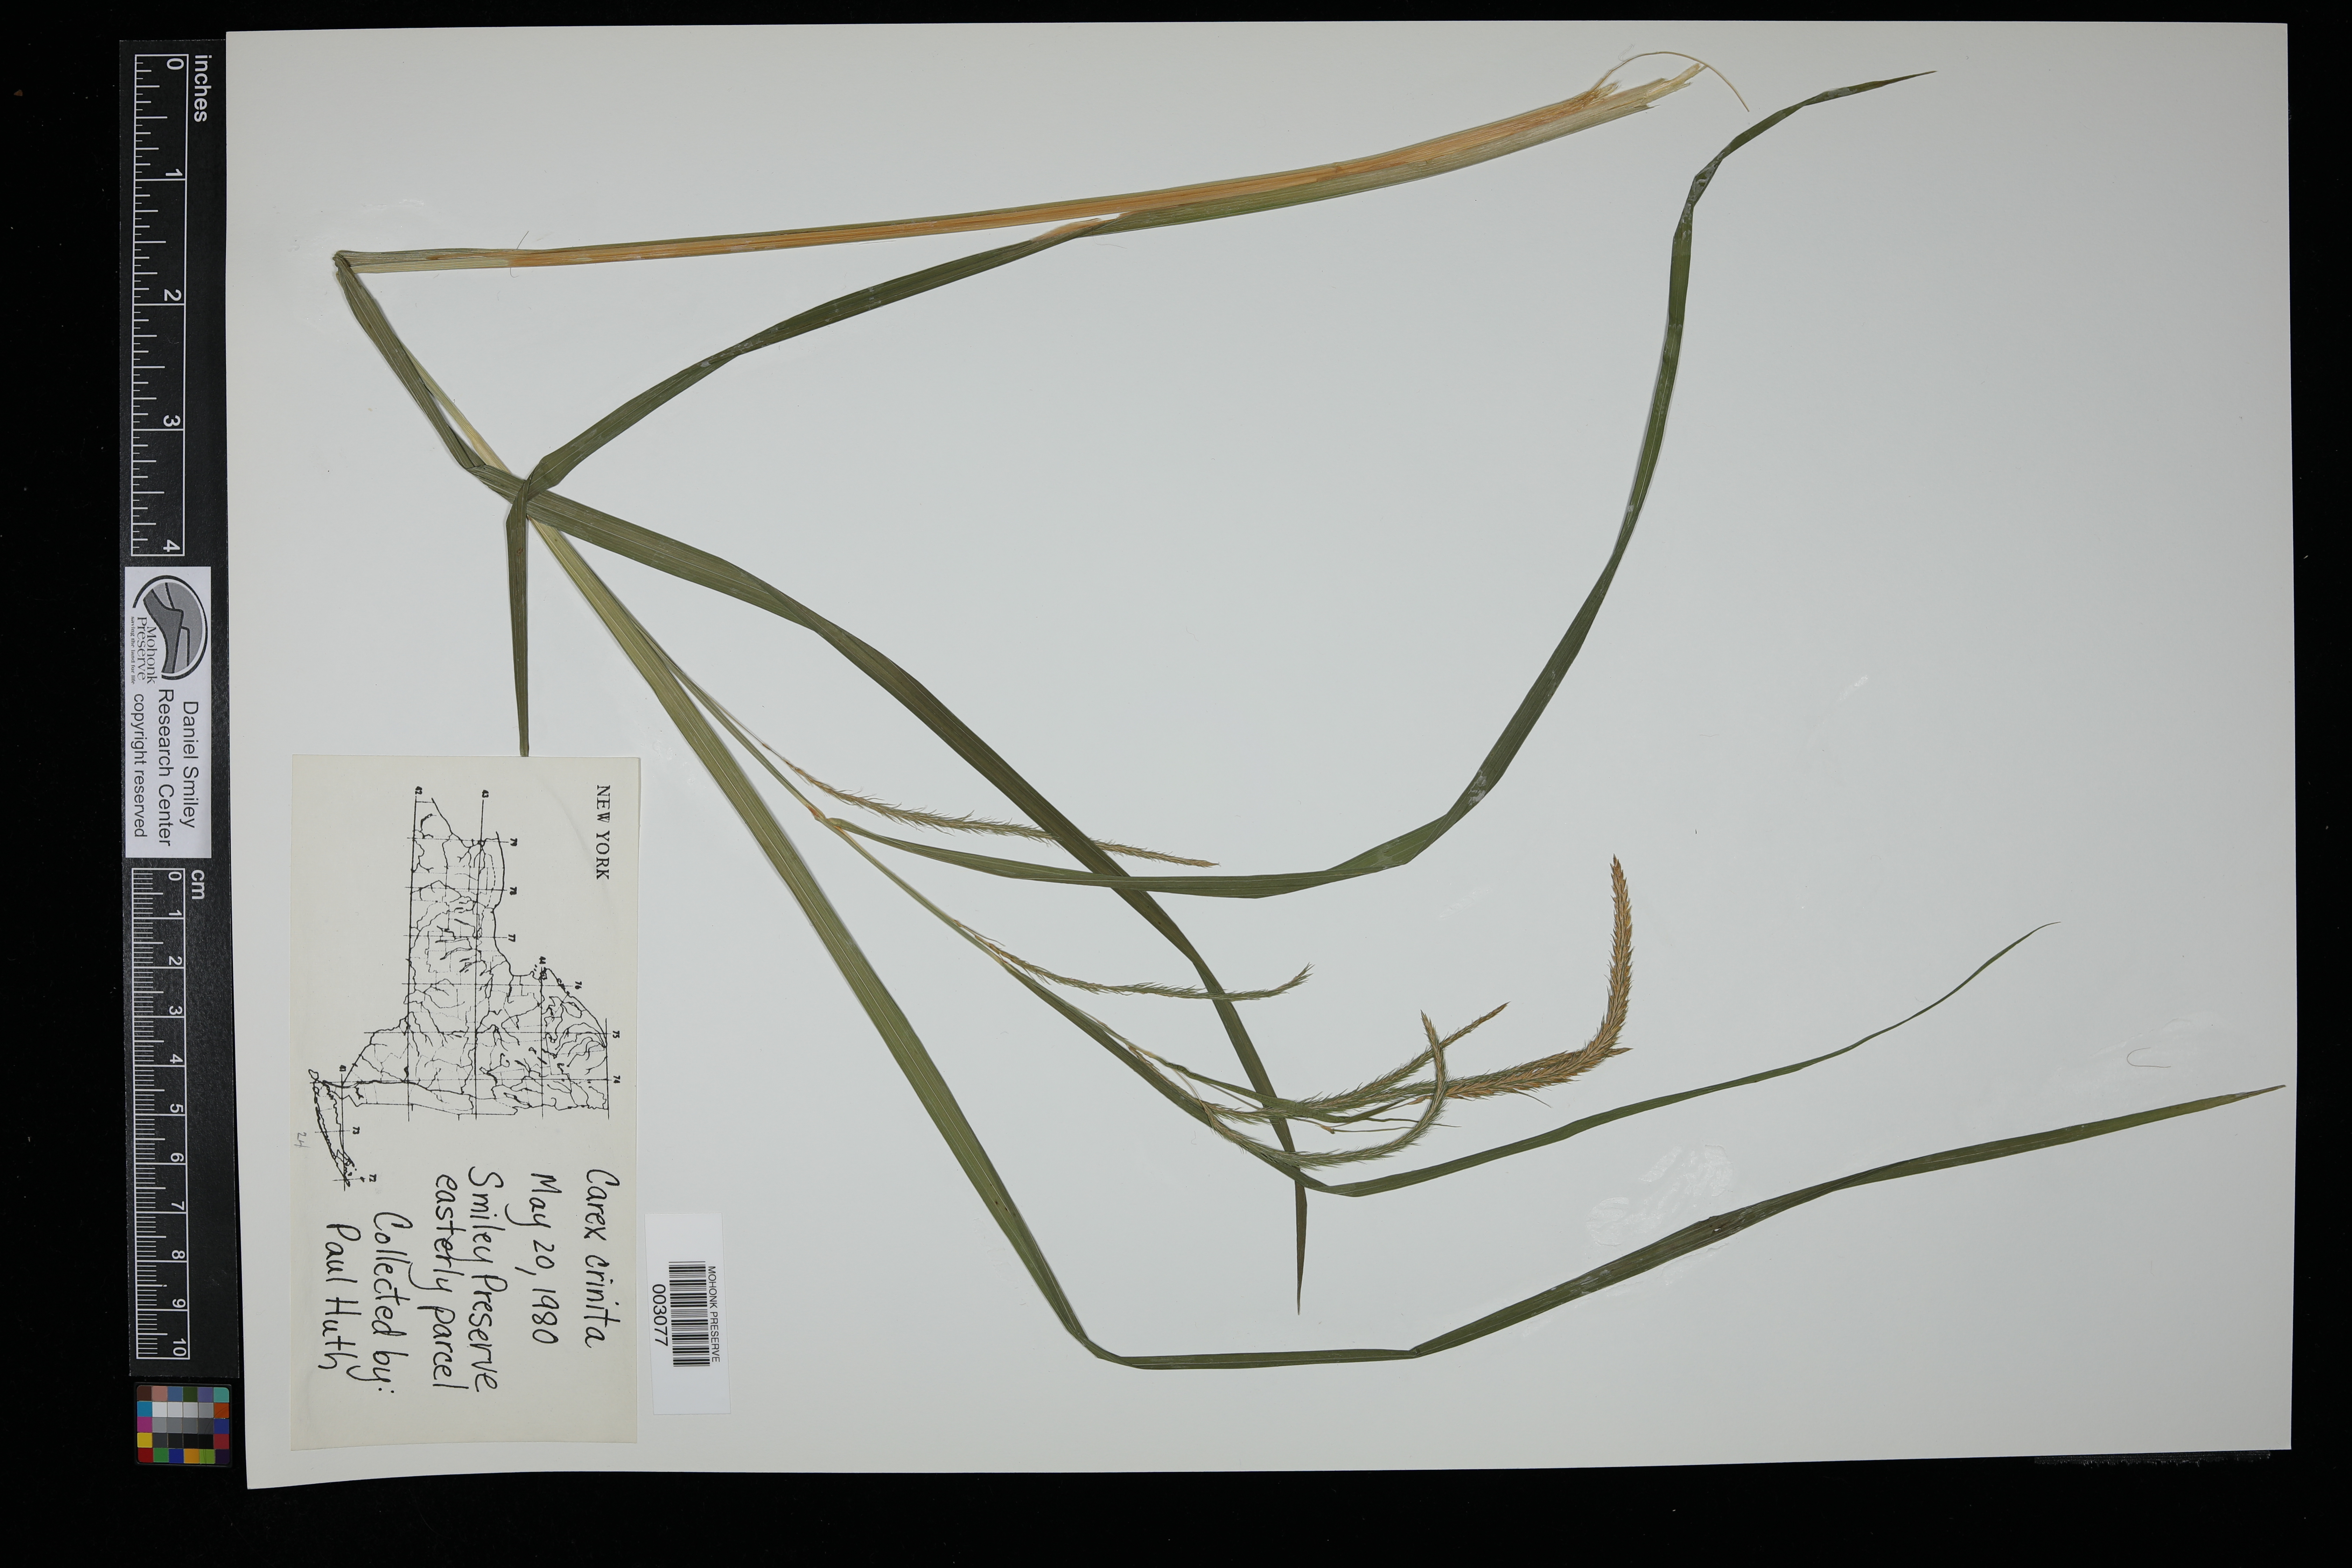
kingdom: Plantae
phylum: Tracheophyta
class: Liliopsida
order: Poales
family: Cyperaceae
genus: Carex
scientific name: Carex crinita
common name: Fringed sedge
